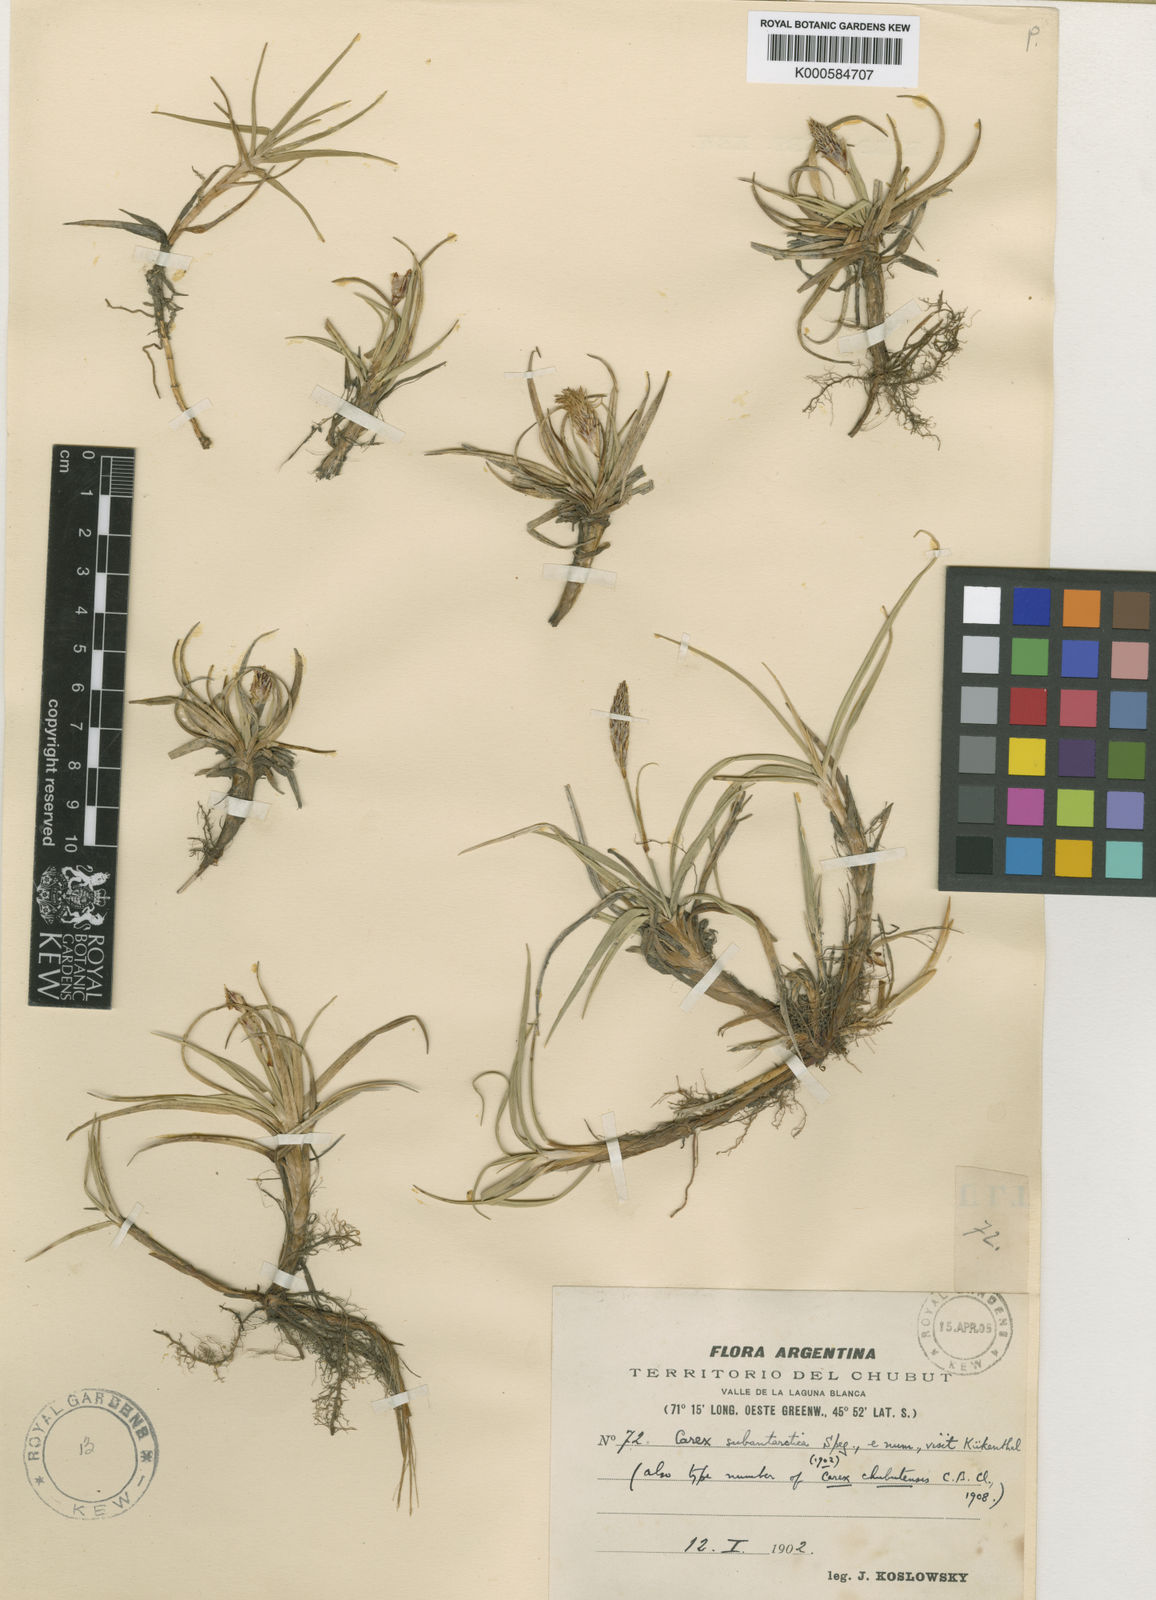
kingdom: Plantae
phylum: Tracheophyta
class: Liliopsida
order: Poales
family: Cyperaceae
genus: Carex
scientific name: Carex setifolia
